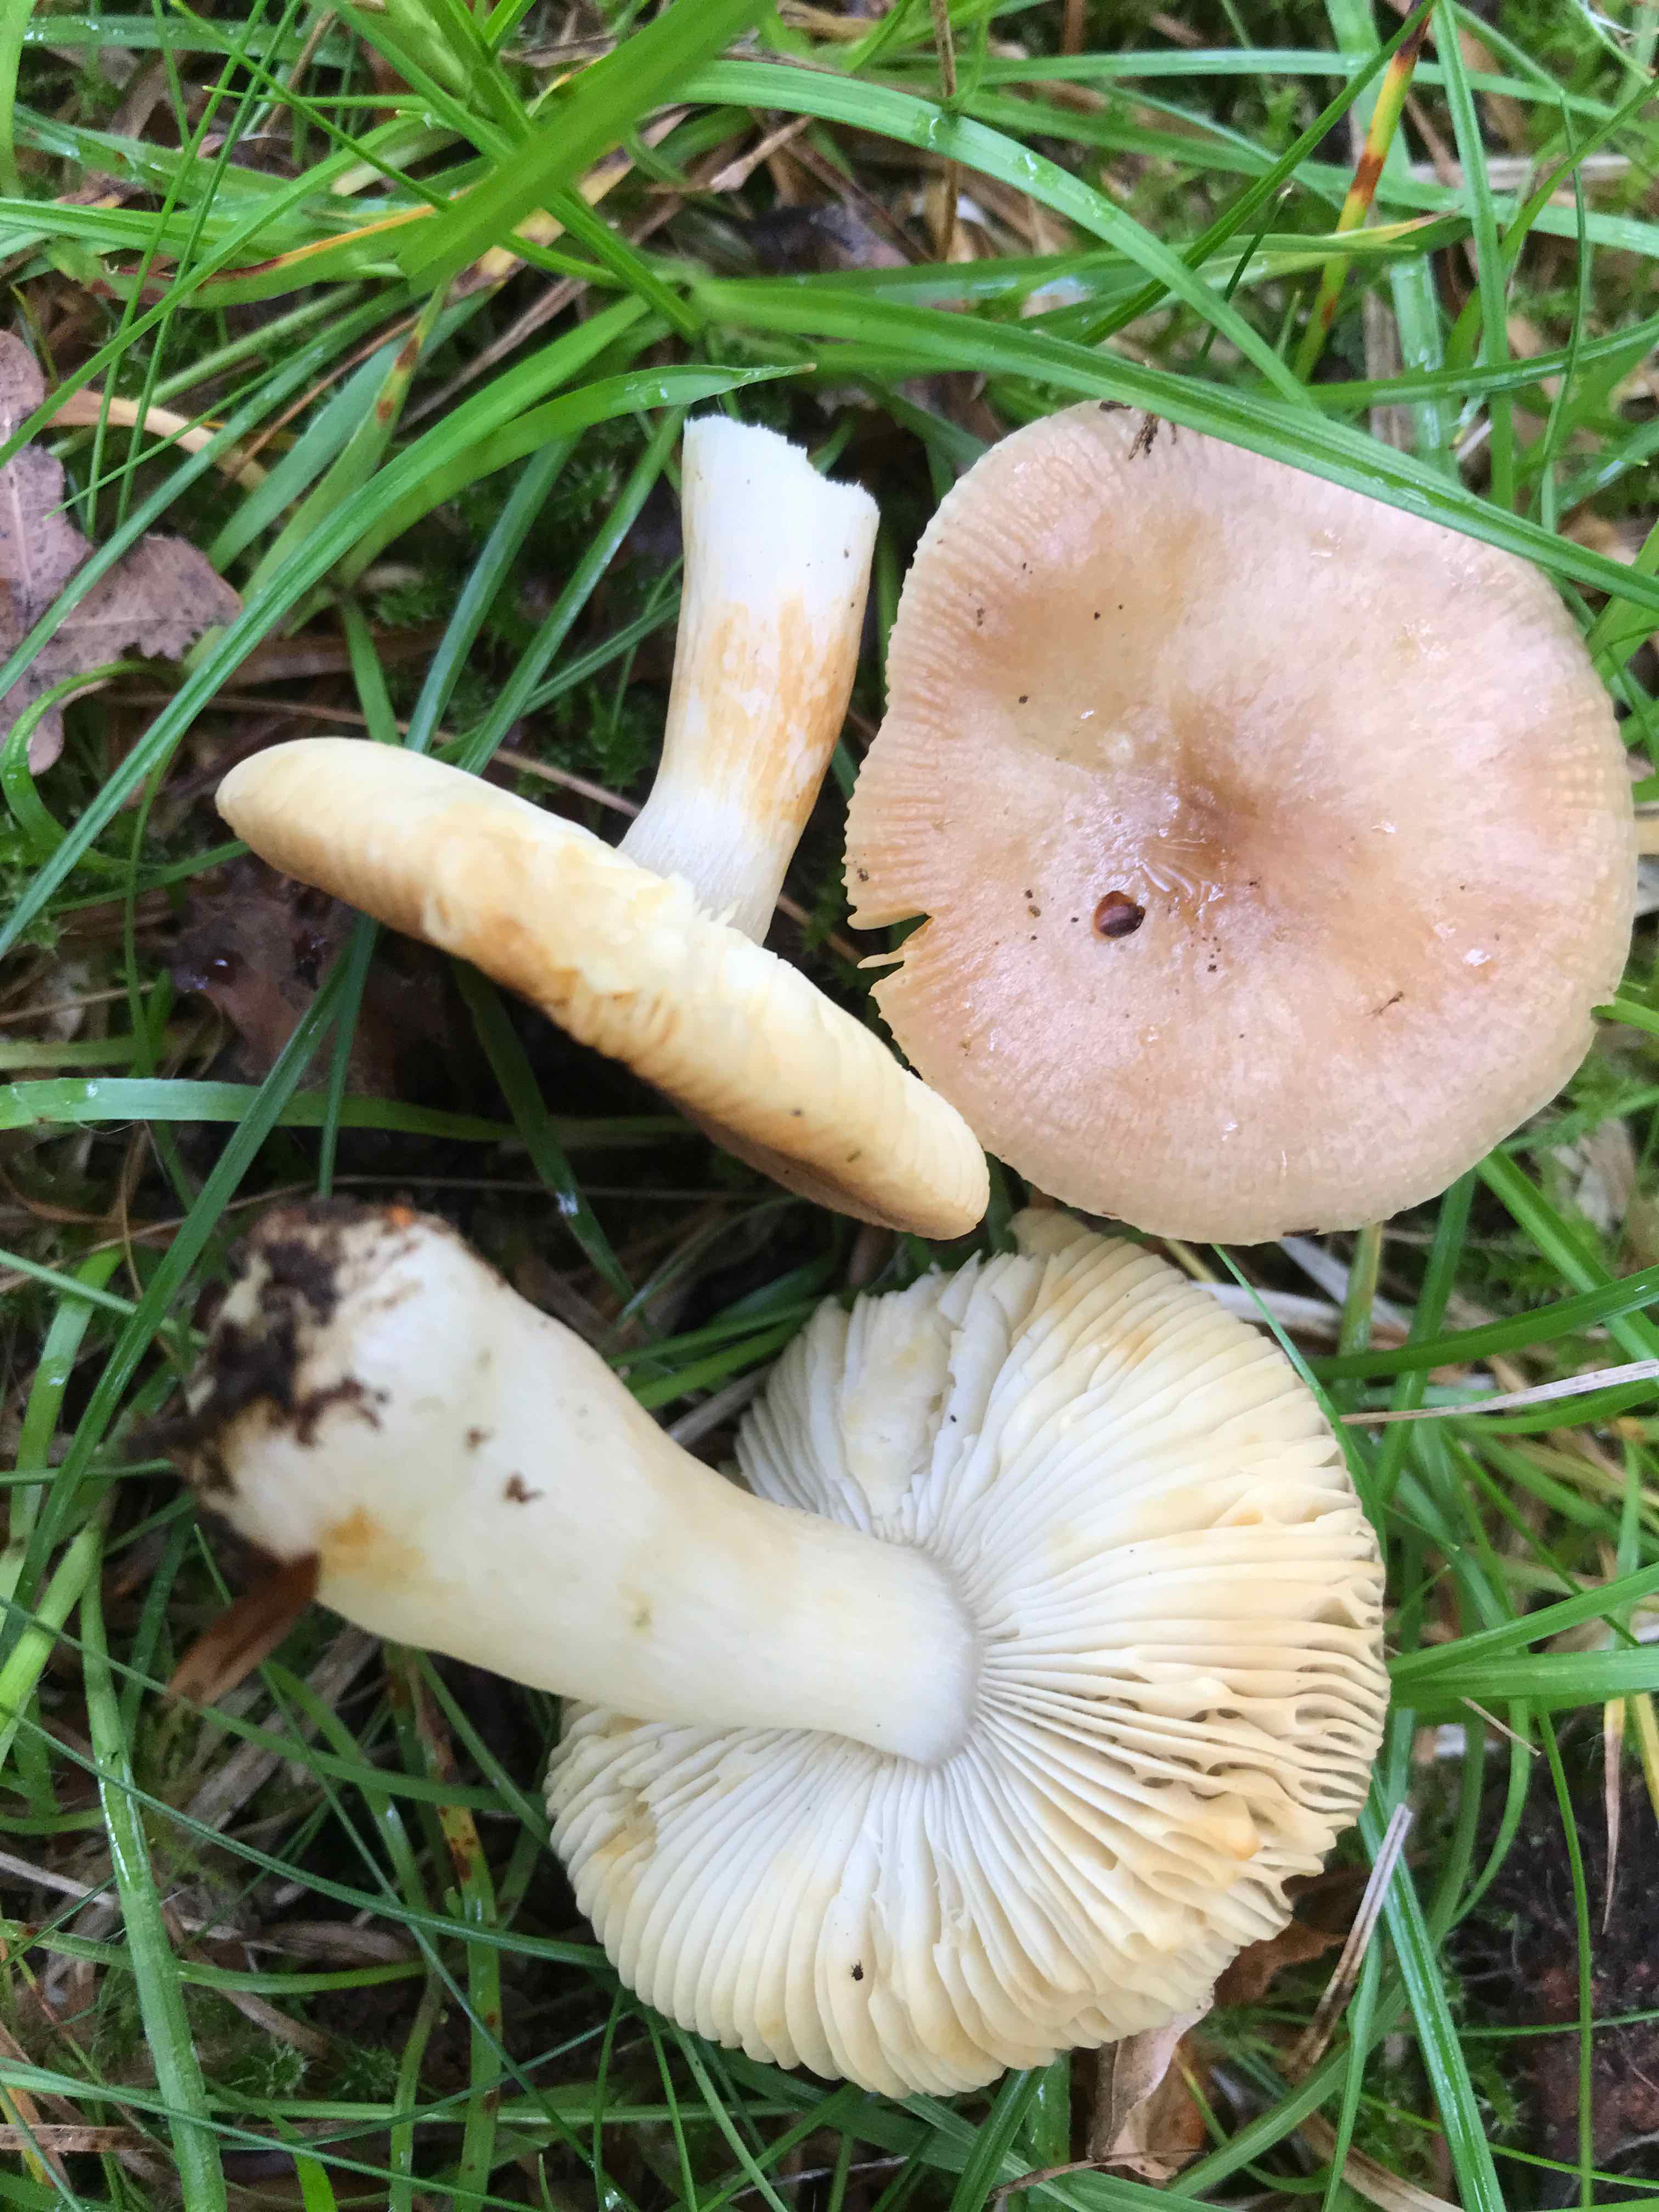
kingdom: Fungi
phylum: Basidiomycota
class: Agaricomycetes
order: Russulales
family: Russulaceae
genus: Russula
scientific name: Russula puellaris
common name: gulstokket skørhat
